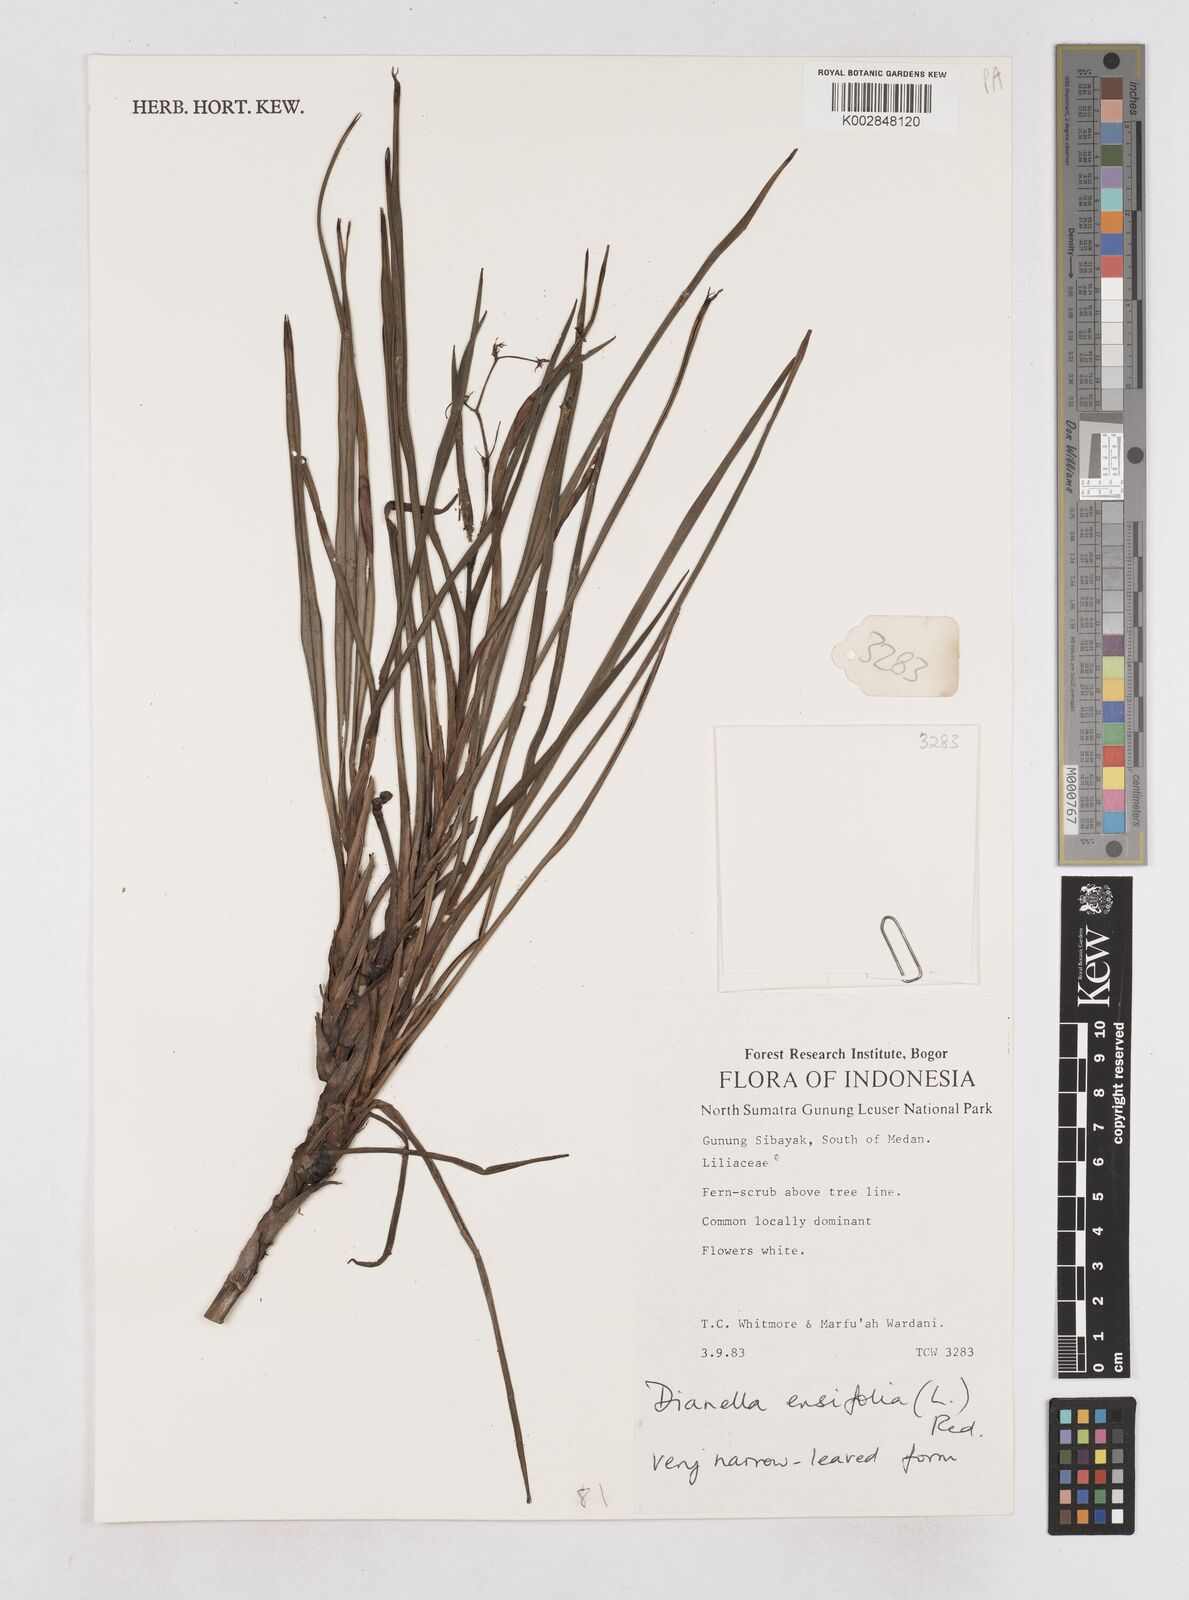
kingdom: Plantae
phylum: Tracheophyta
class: Liliopsida
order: Asparagales
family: Asphodelaceae
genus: Dianella
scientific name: Dianella ensifolia
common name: New zealand lilyplant
